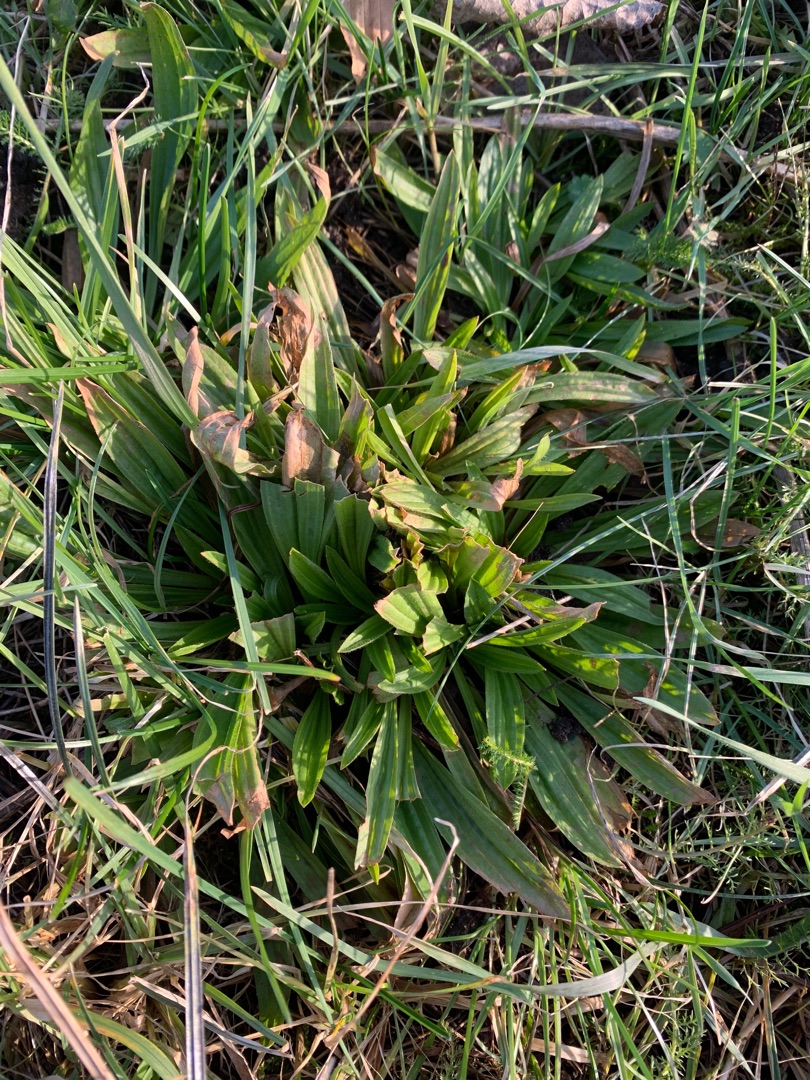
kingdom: Plantae
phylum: Tracheophyta
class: Magnoliopsida
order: Lamiales
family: Plantaginaceae
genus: Plantago
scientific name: Plantago lanceolata
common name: Lancet-vejbred
